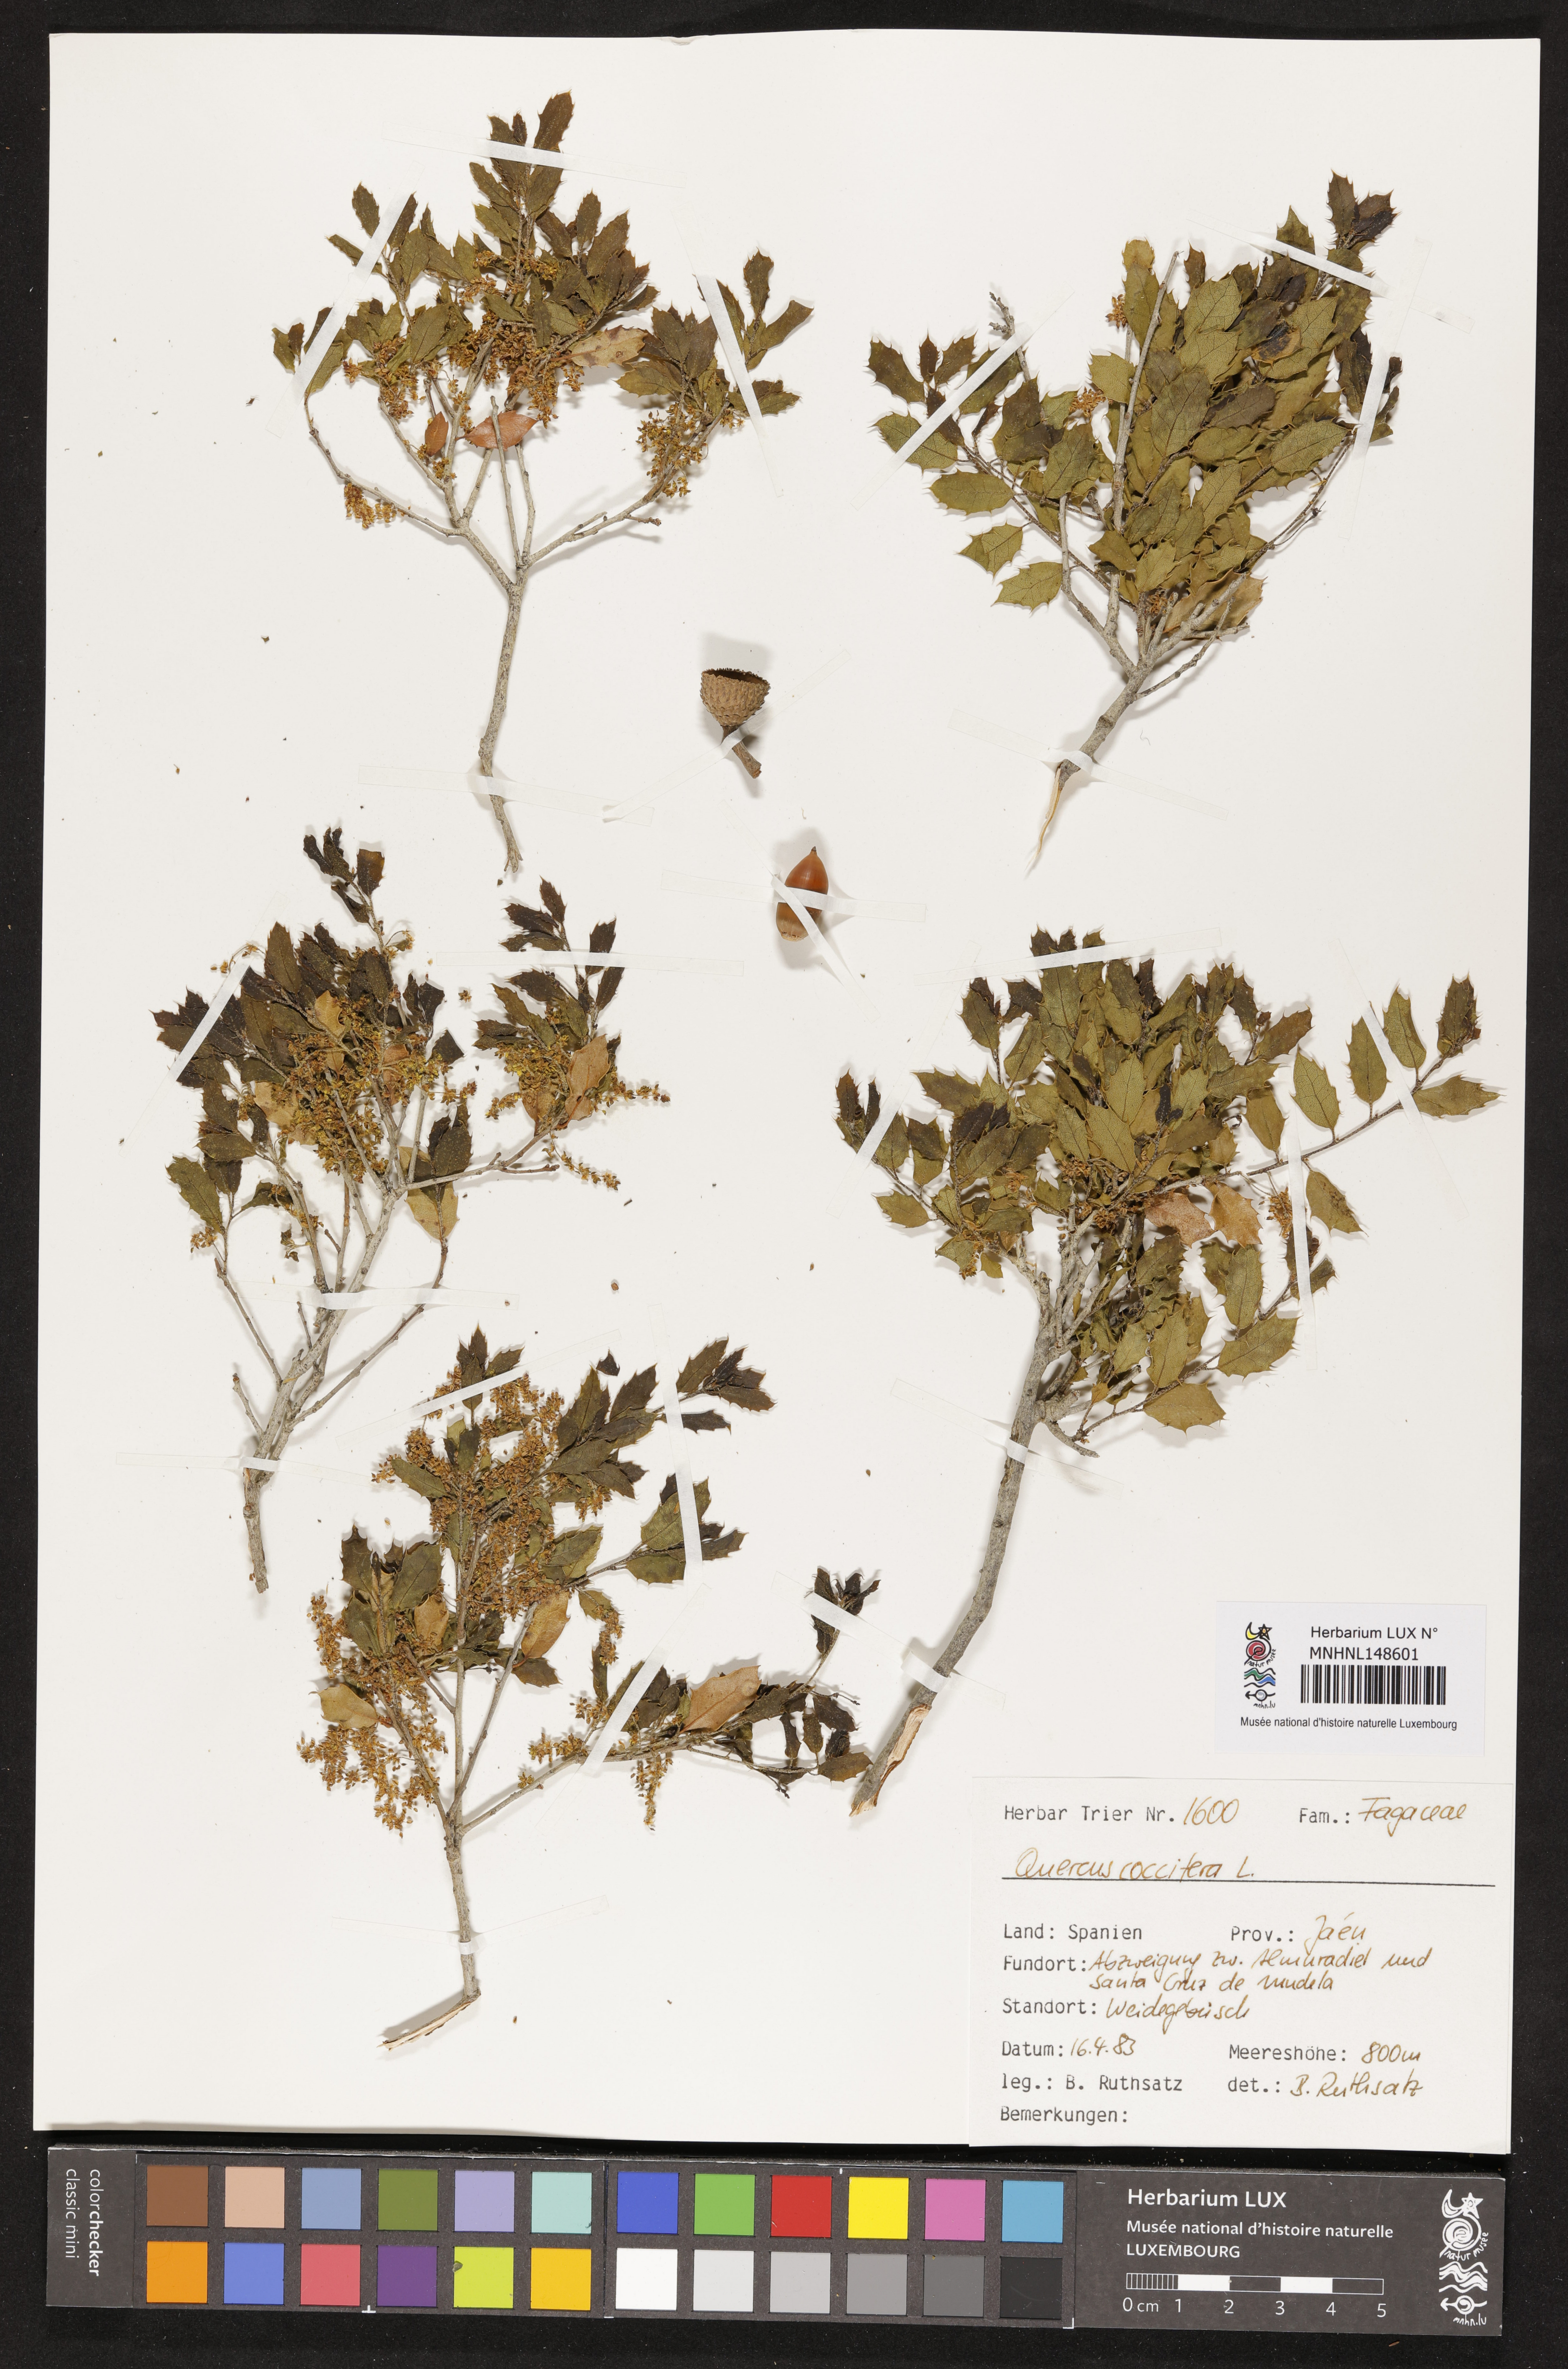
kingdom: Plantae
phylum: Tracheophyta
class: Magnoliopsida
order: Fagales
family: Fagaceae
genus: Quercus
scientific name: Quercus coccifera
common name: Kermes oak
